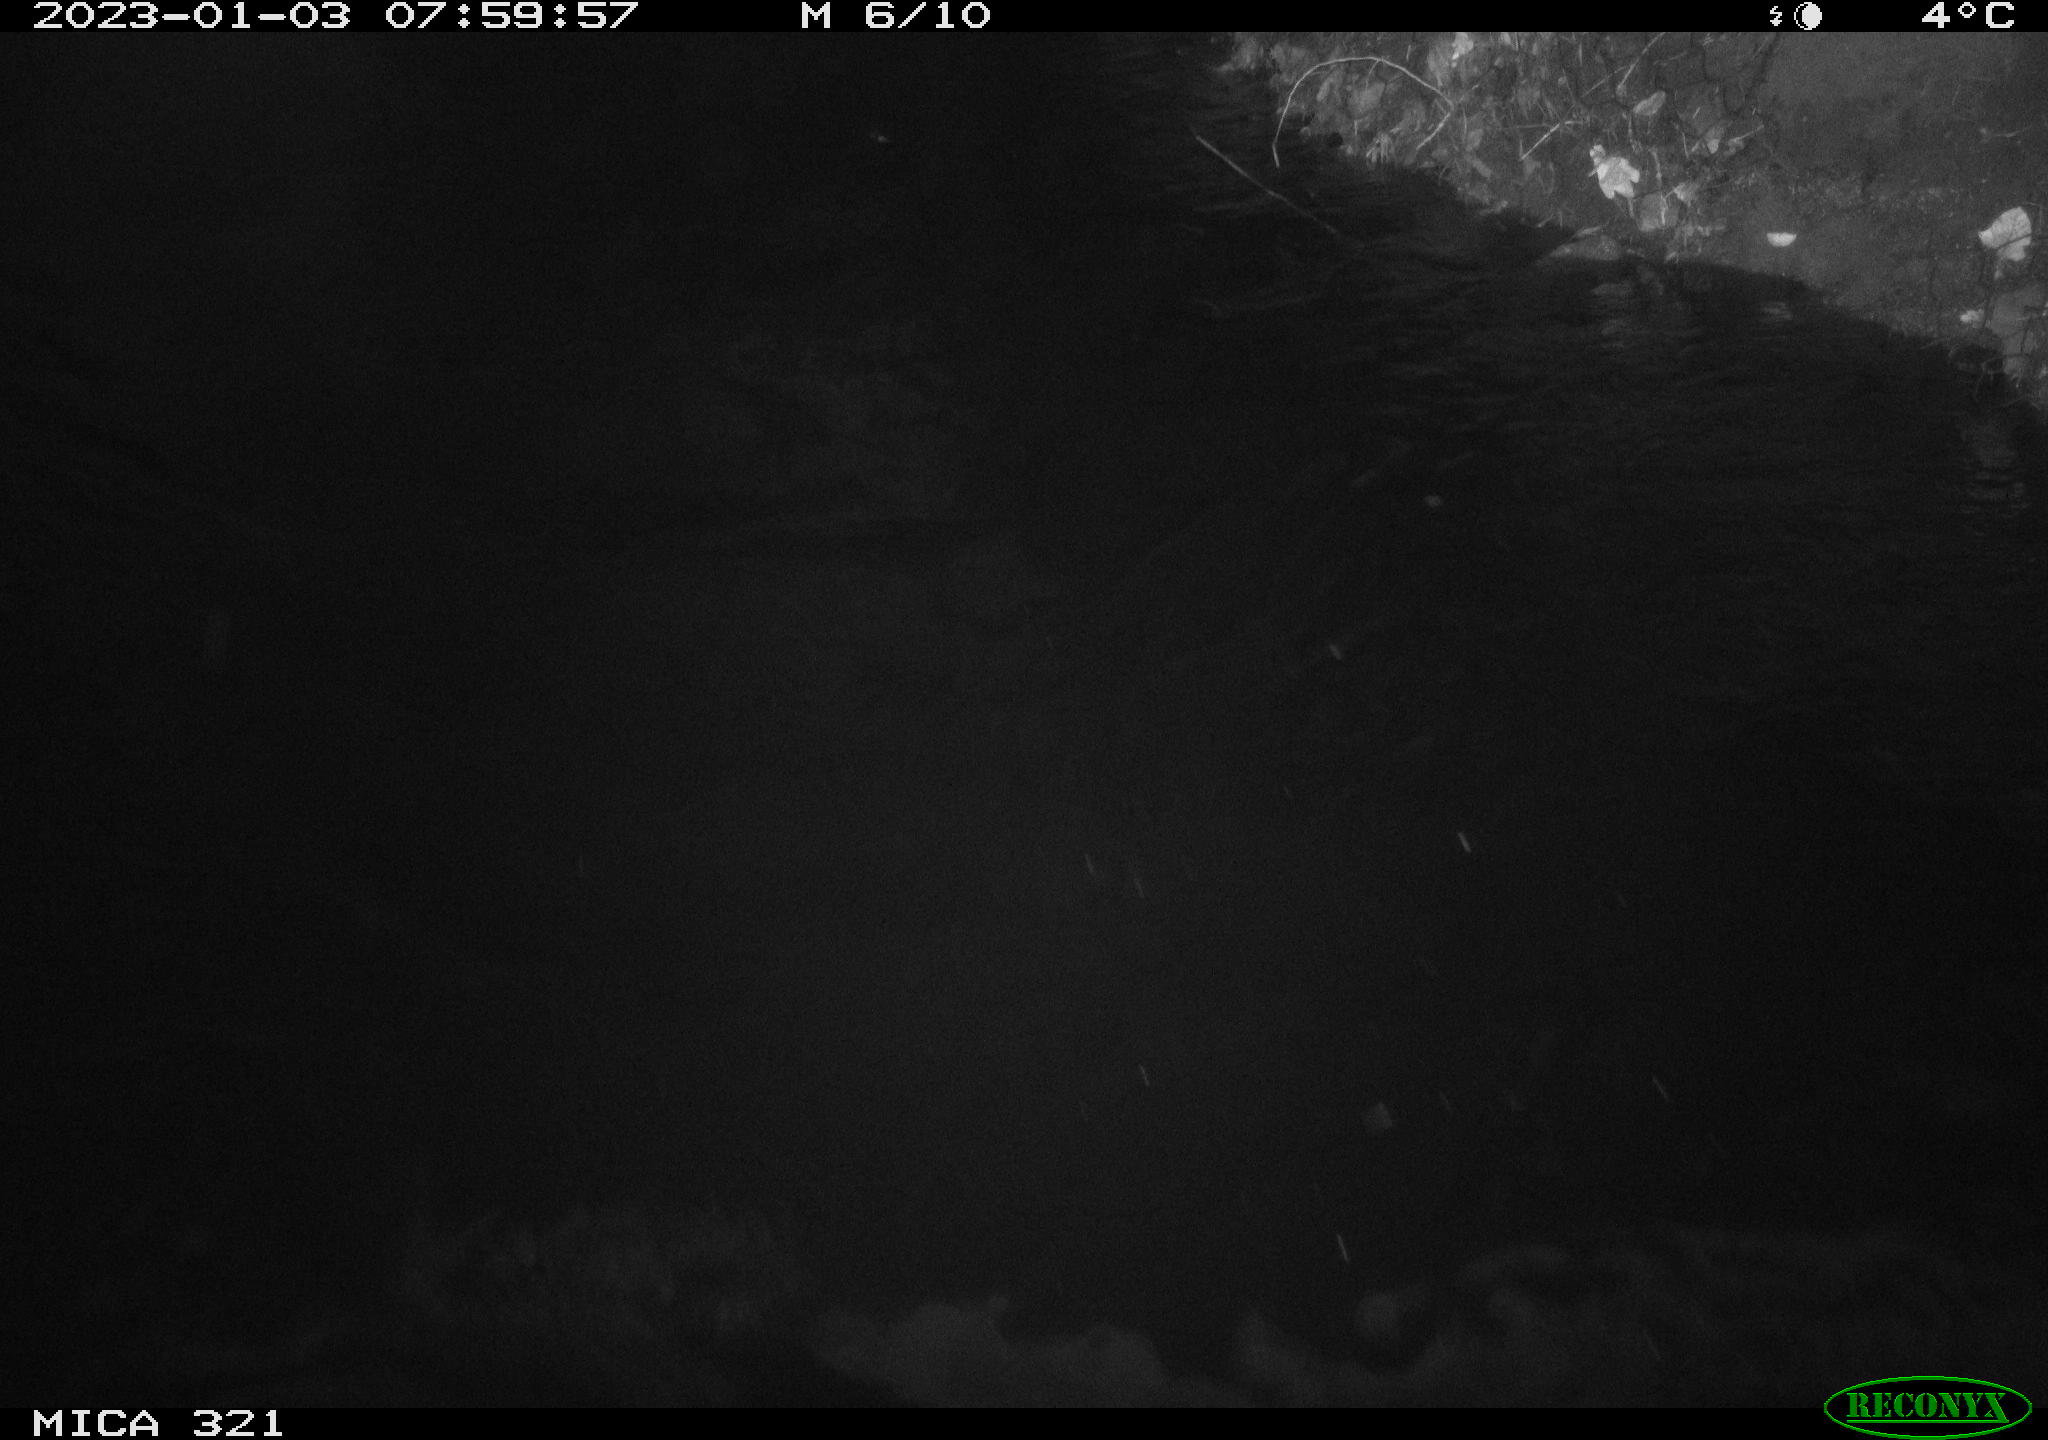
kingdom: Animalia
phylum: Chordata
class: Aves
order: Anseriformes
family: Anatidae
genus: Anas
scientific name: Anas
